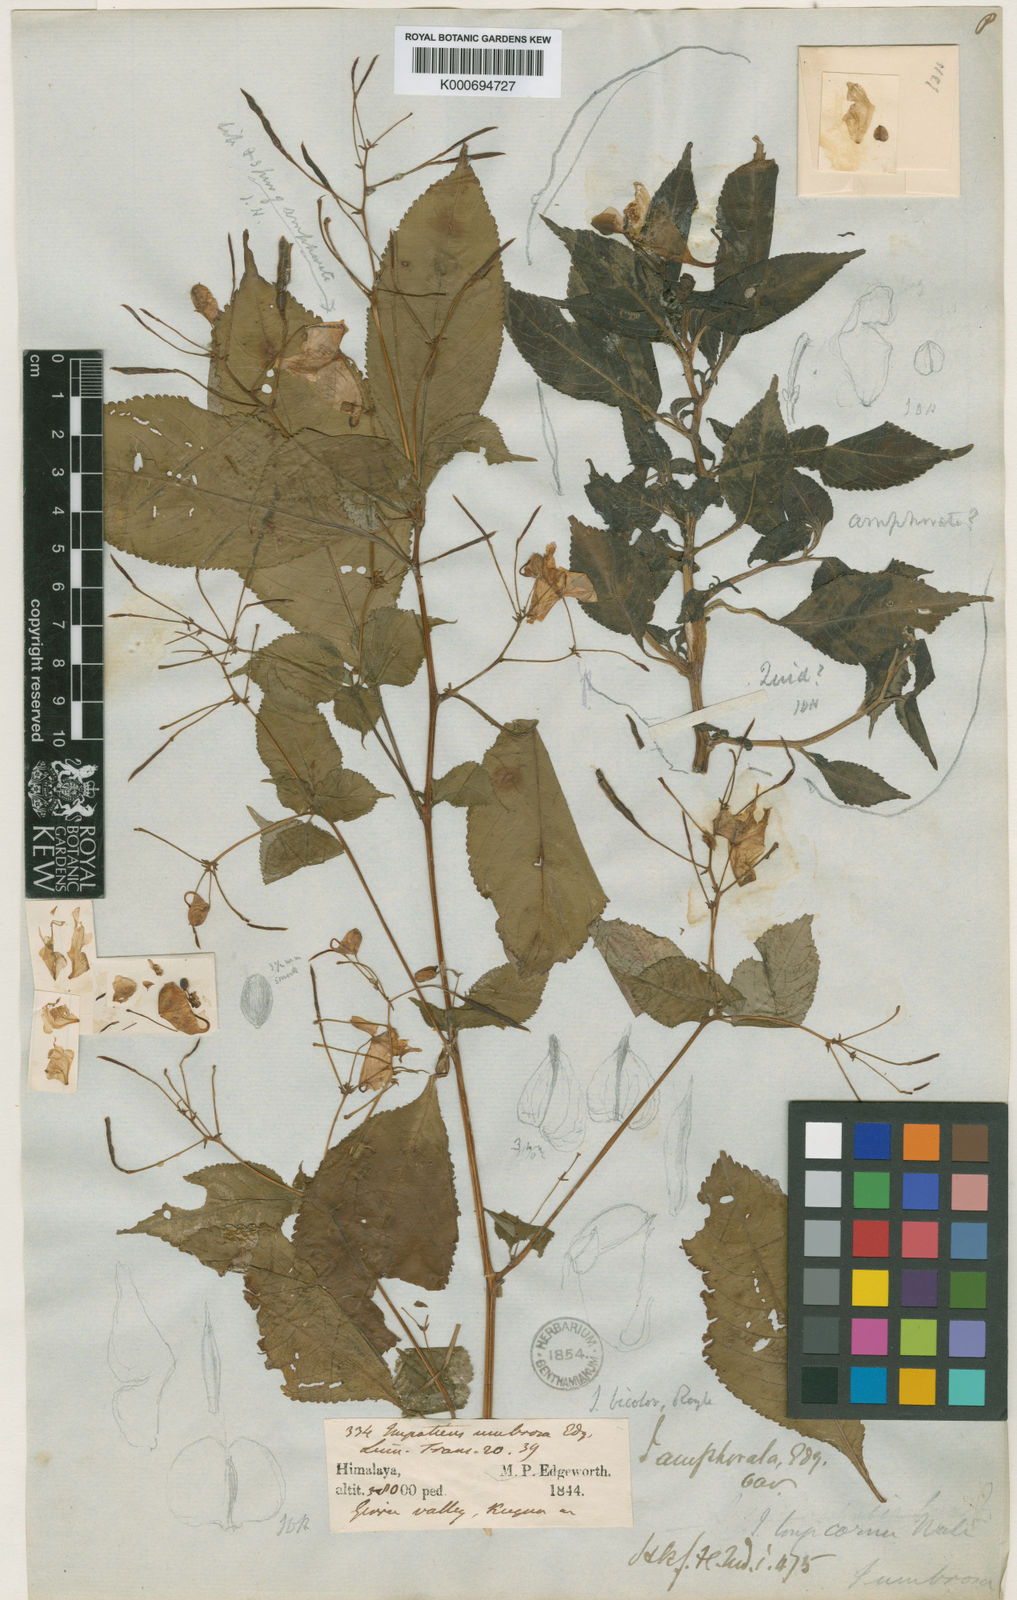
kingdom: Plantae
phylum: Tracheophyta
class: Magnoliopsida
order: Ericales
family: Balsaminaceae
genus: Impatiens
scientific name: Impatiens bicolor
